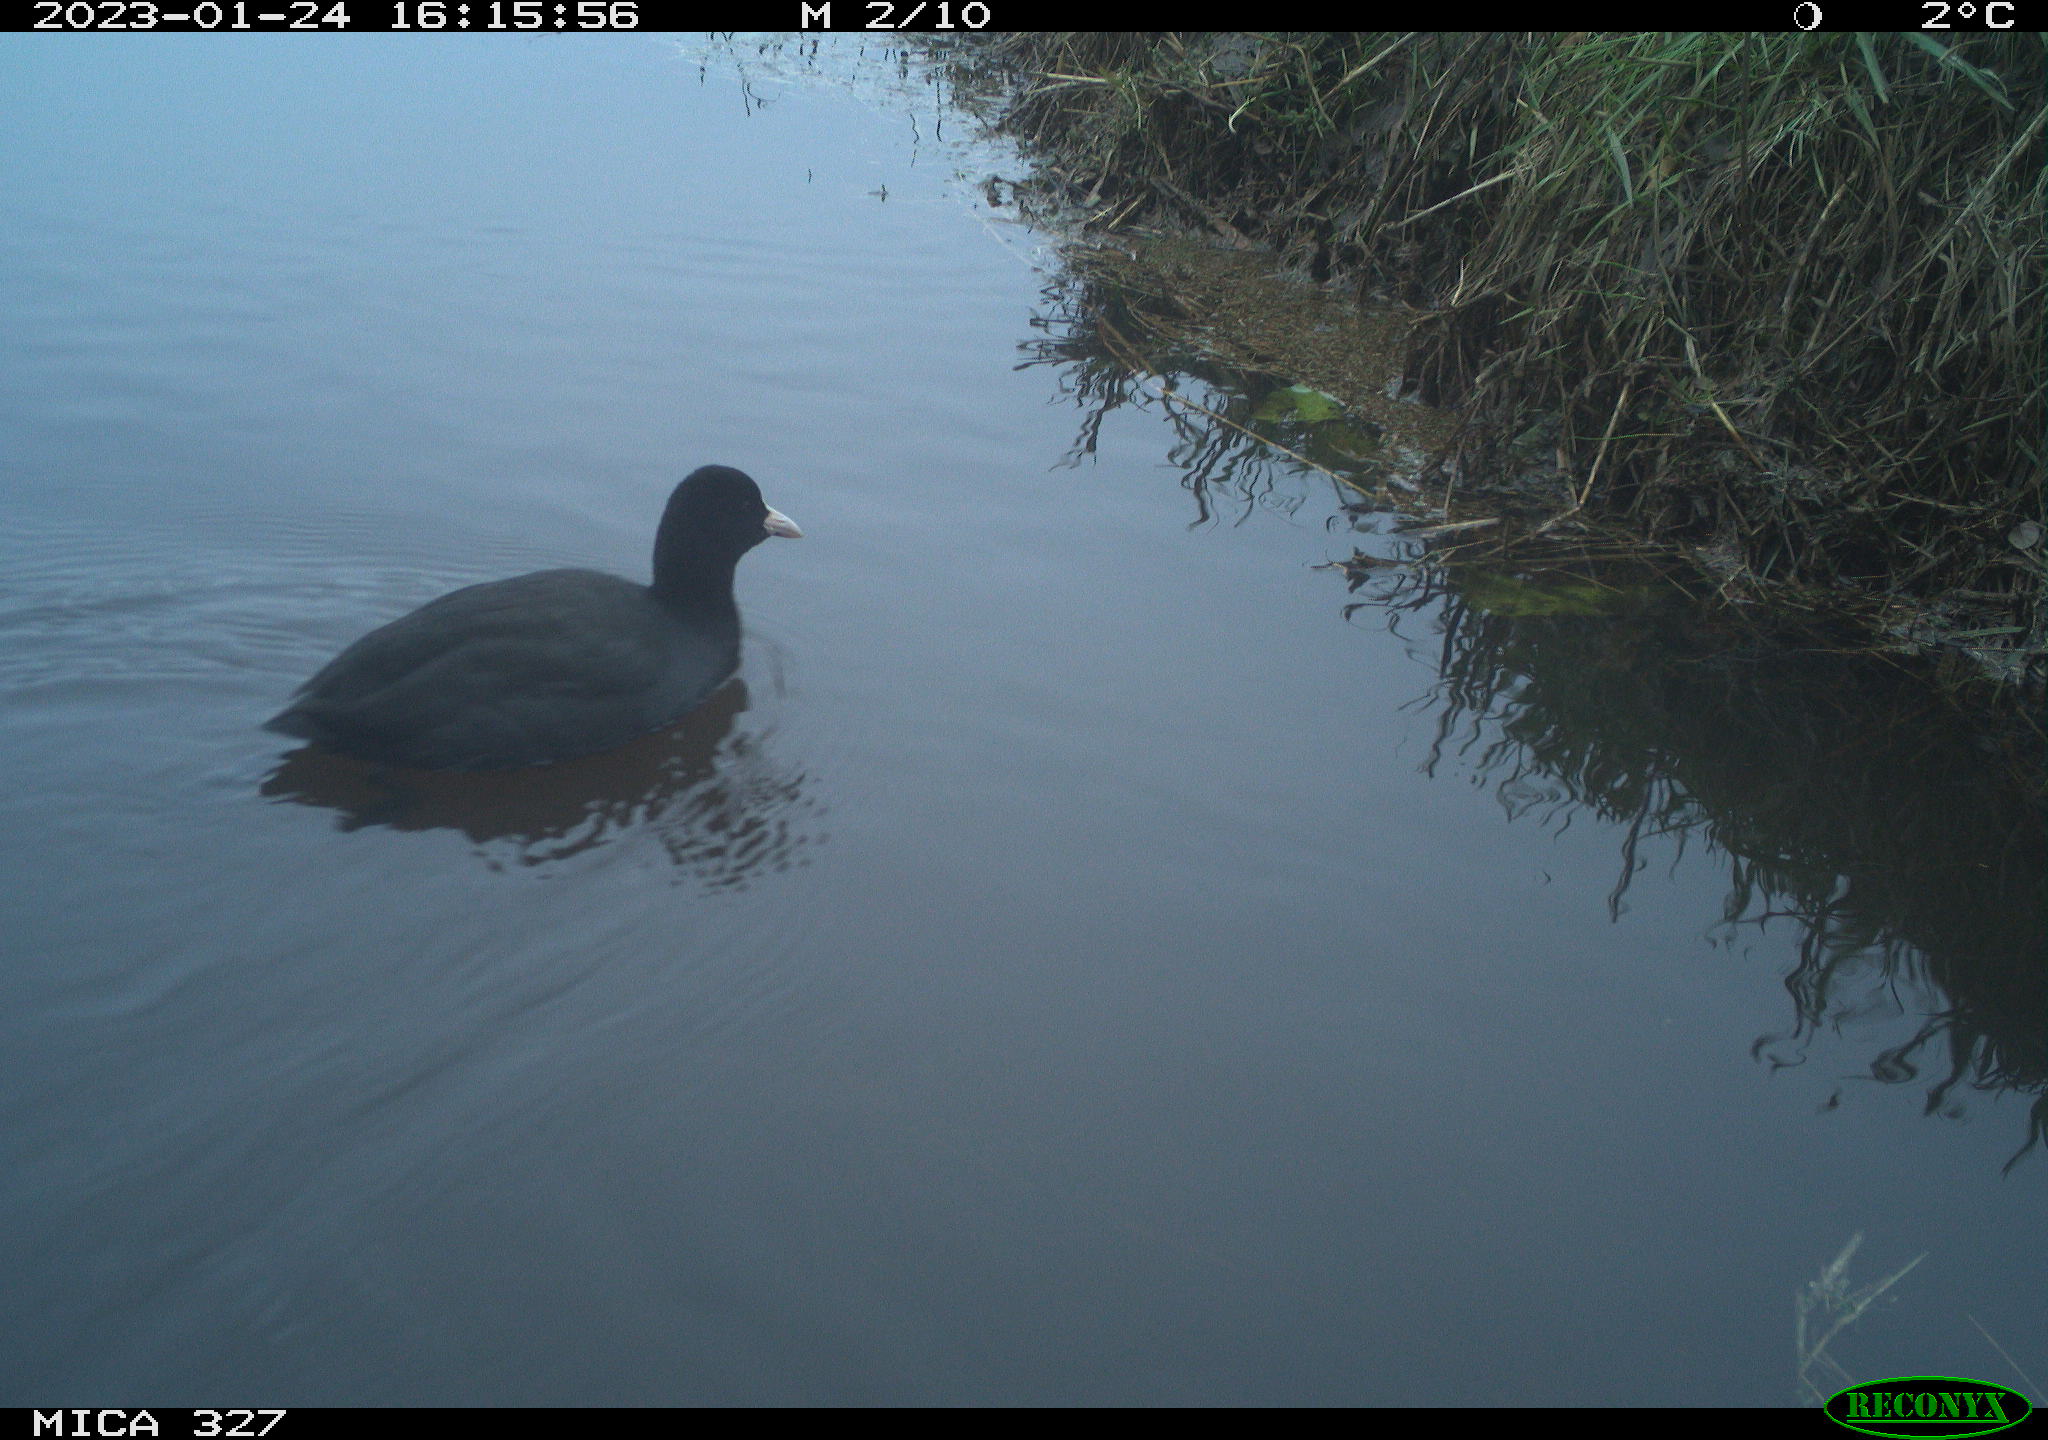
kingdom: Animalia
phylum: Chordata
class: Aves
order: Gruiformes
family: Rallidae
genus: Fulica
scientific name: Fulica atra
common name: Eurasian coot
